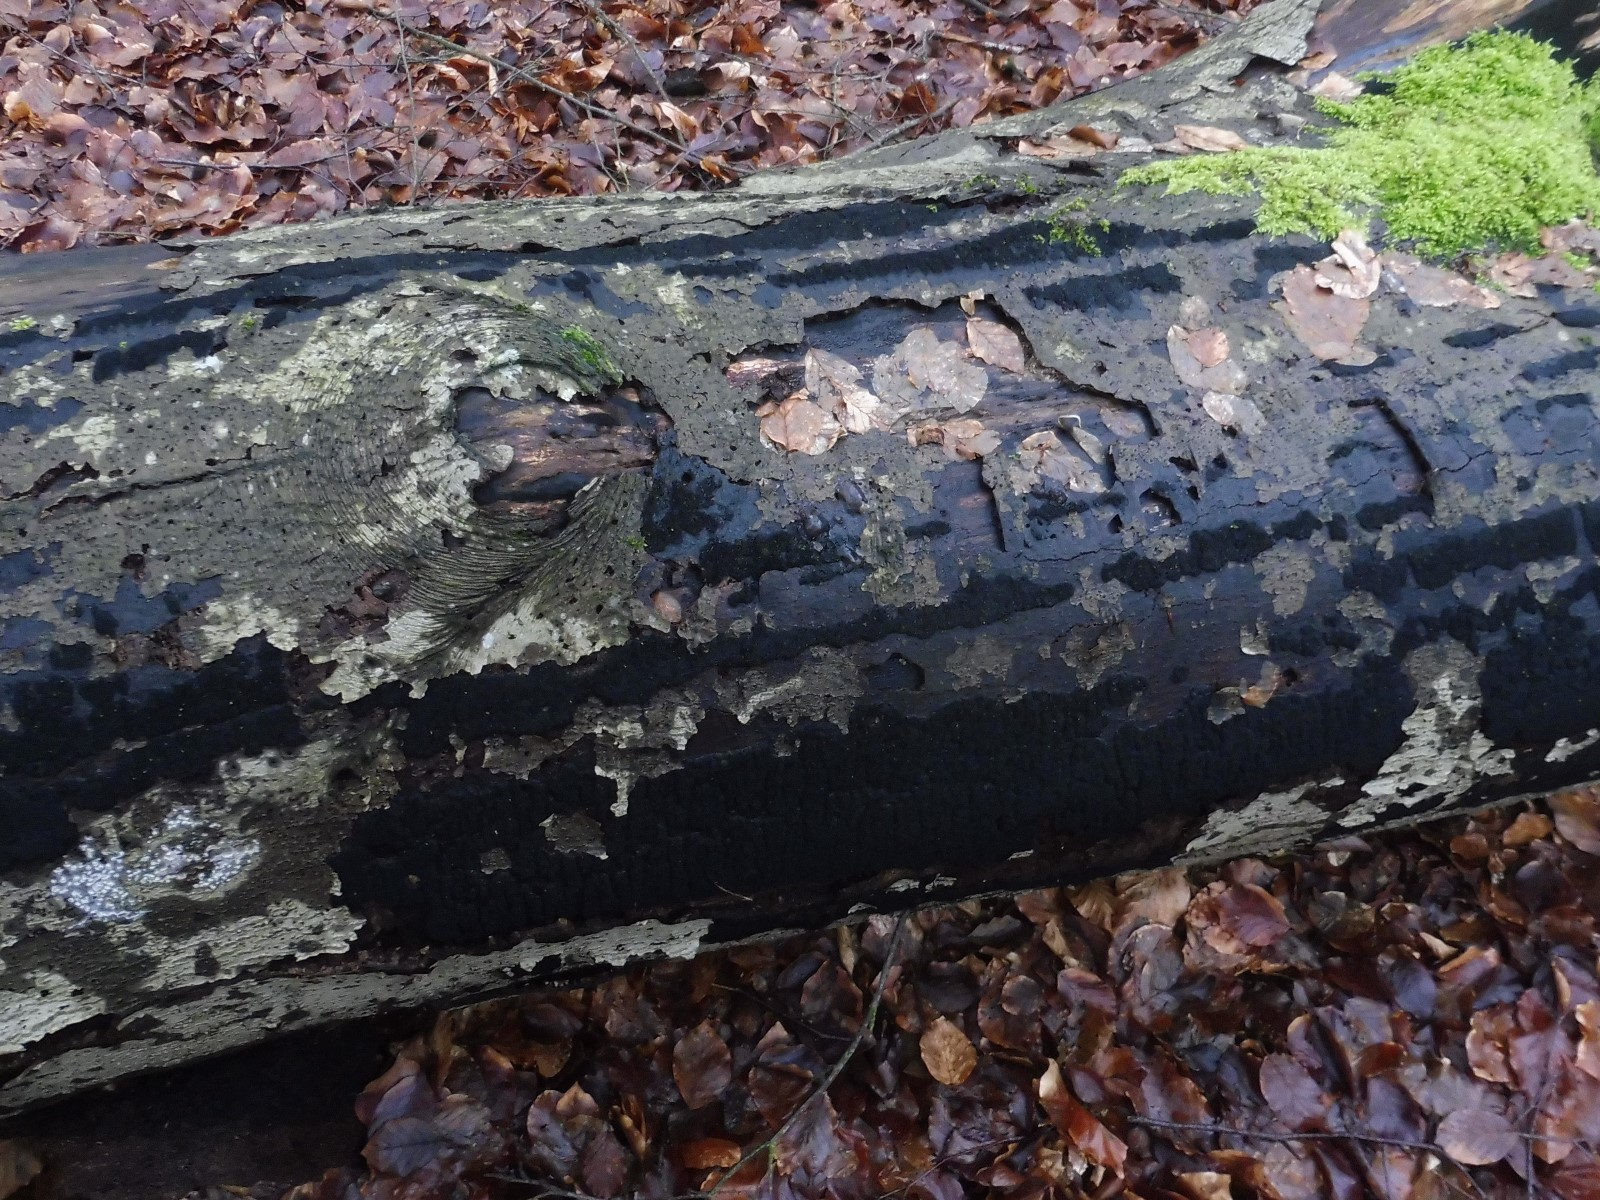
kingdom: Fungi
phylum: Ascomycota
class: Sordariomycetes
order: Xylariales
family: Diatrypaceae
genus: Eutypa
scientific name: Eutypa spinosa
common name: grov kulskorpe
